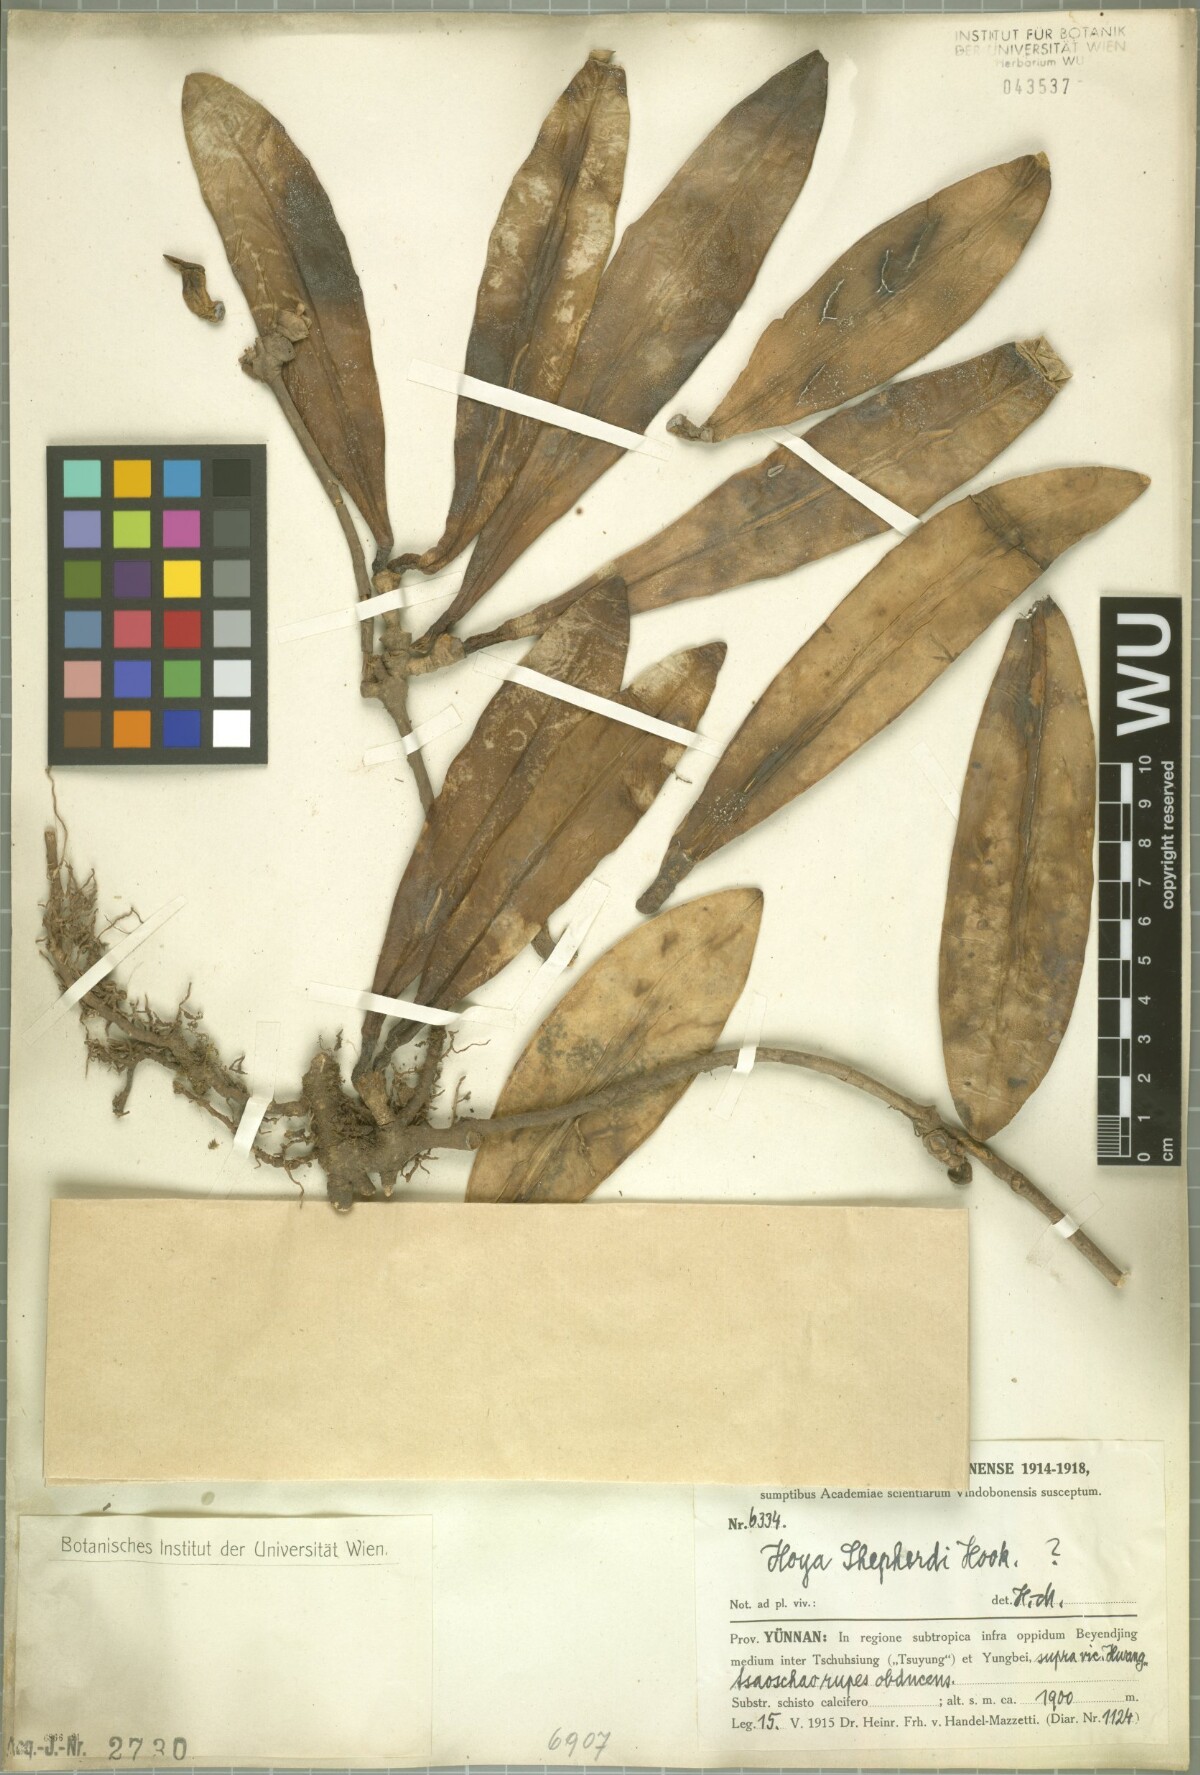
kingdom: Plantae
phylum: Tracheophyta
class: Magnoliopsida
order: Gentianales
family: Apocynaceae
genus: Hoya
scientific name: Hoya shepherdii
